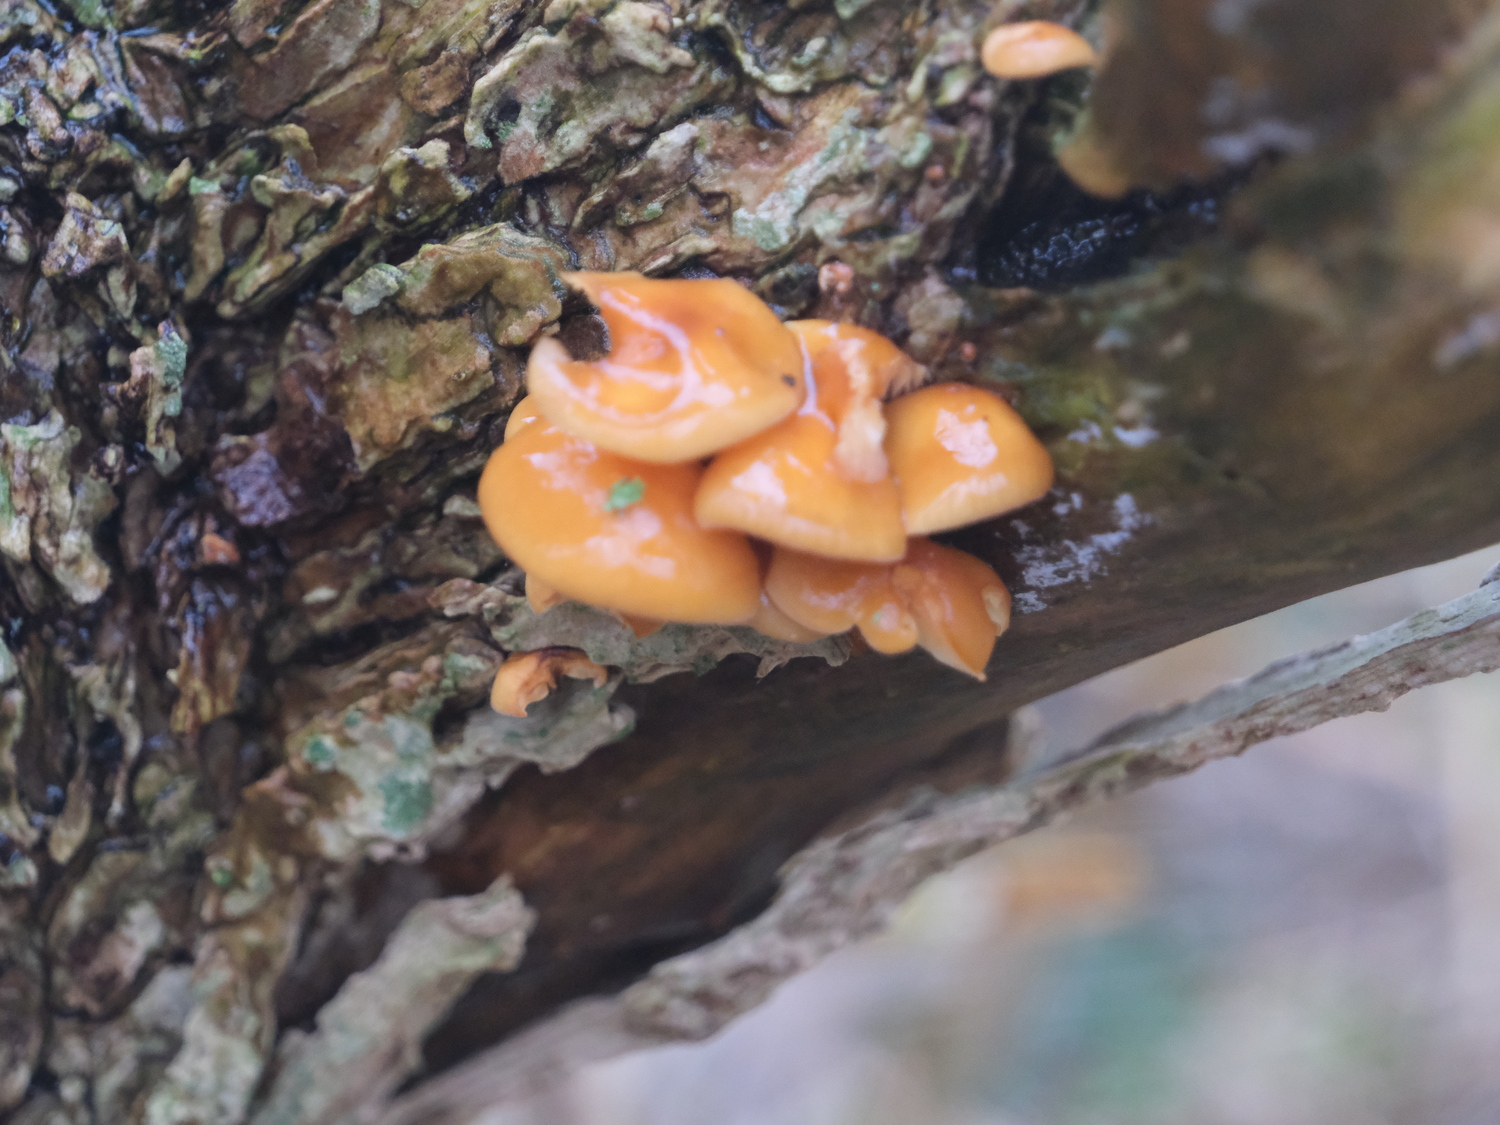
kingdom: Fungi
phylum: Basidiomycota
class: Agaricomycetes
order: Agaricales
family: Physalacriaceae
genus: Flammulina
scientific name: Flammulina velutipes
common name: gul fløjlsfod
